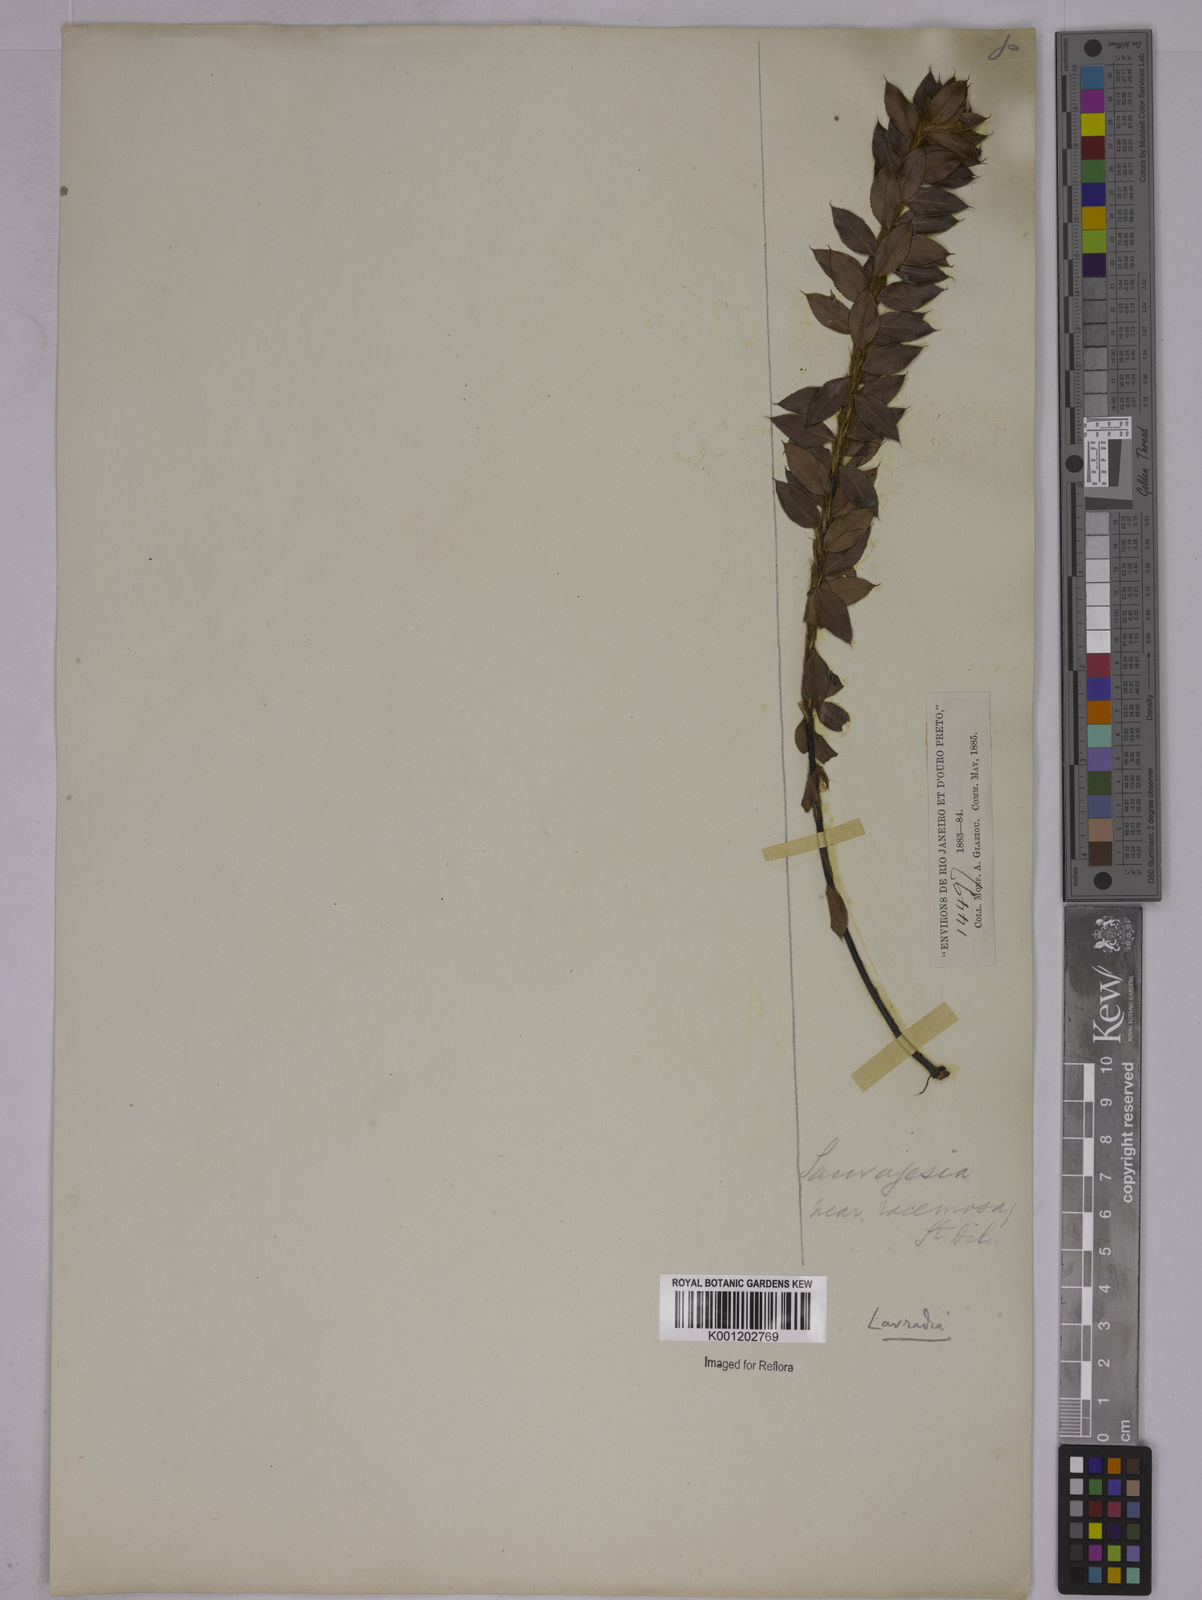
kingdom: Plantae
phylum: Tracheophyta
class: Magnoliopsida
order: Malpighiales
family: Ochnaceae
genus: Sauvagesia
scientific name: Sauvagesia elegantissima
